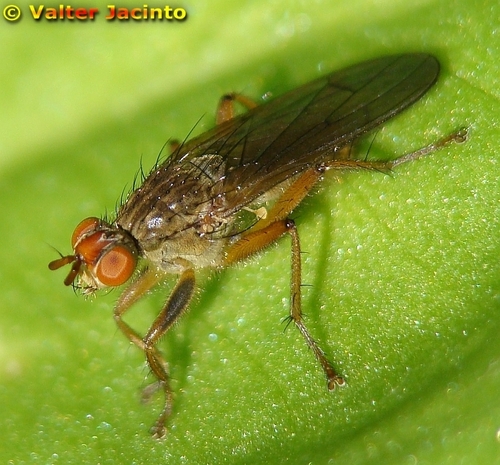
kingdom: Animalia
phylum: Arthropoda
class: Insecta
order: Diptera
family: Scathophagidae
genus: Scathophaga
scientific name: Scathophaga lutaria
